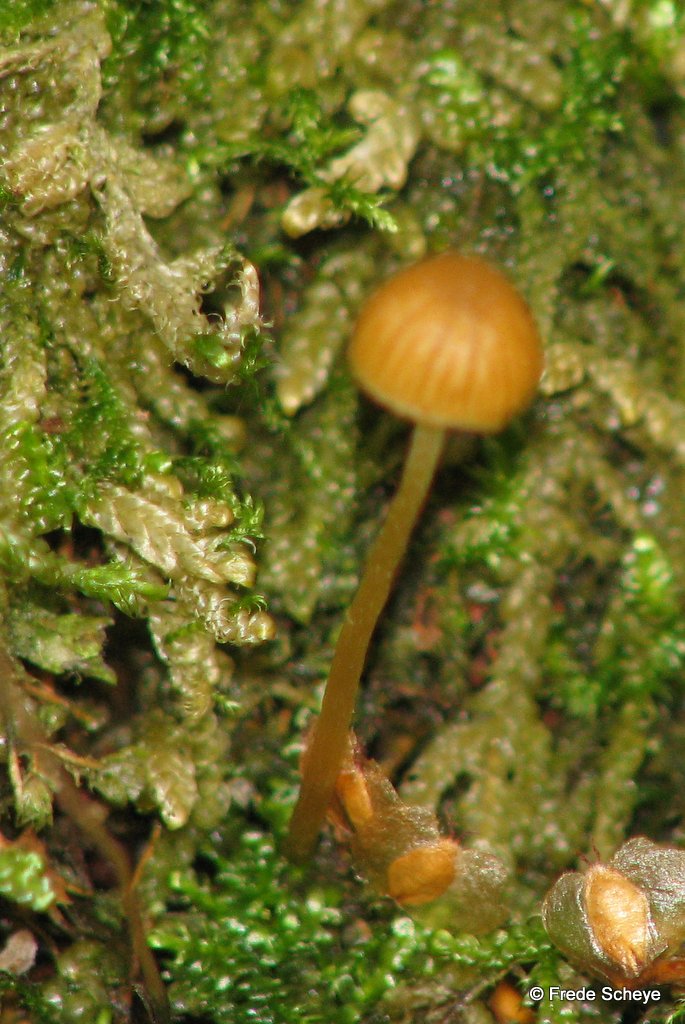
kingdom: Fungi
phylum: Basidiomycota
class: Agaricomycetes
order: Hymenochaetales
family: Rickenellaceae
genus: Rickenella
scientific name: Rickenella fibula
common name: orange mosnavlehat
